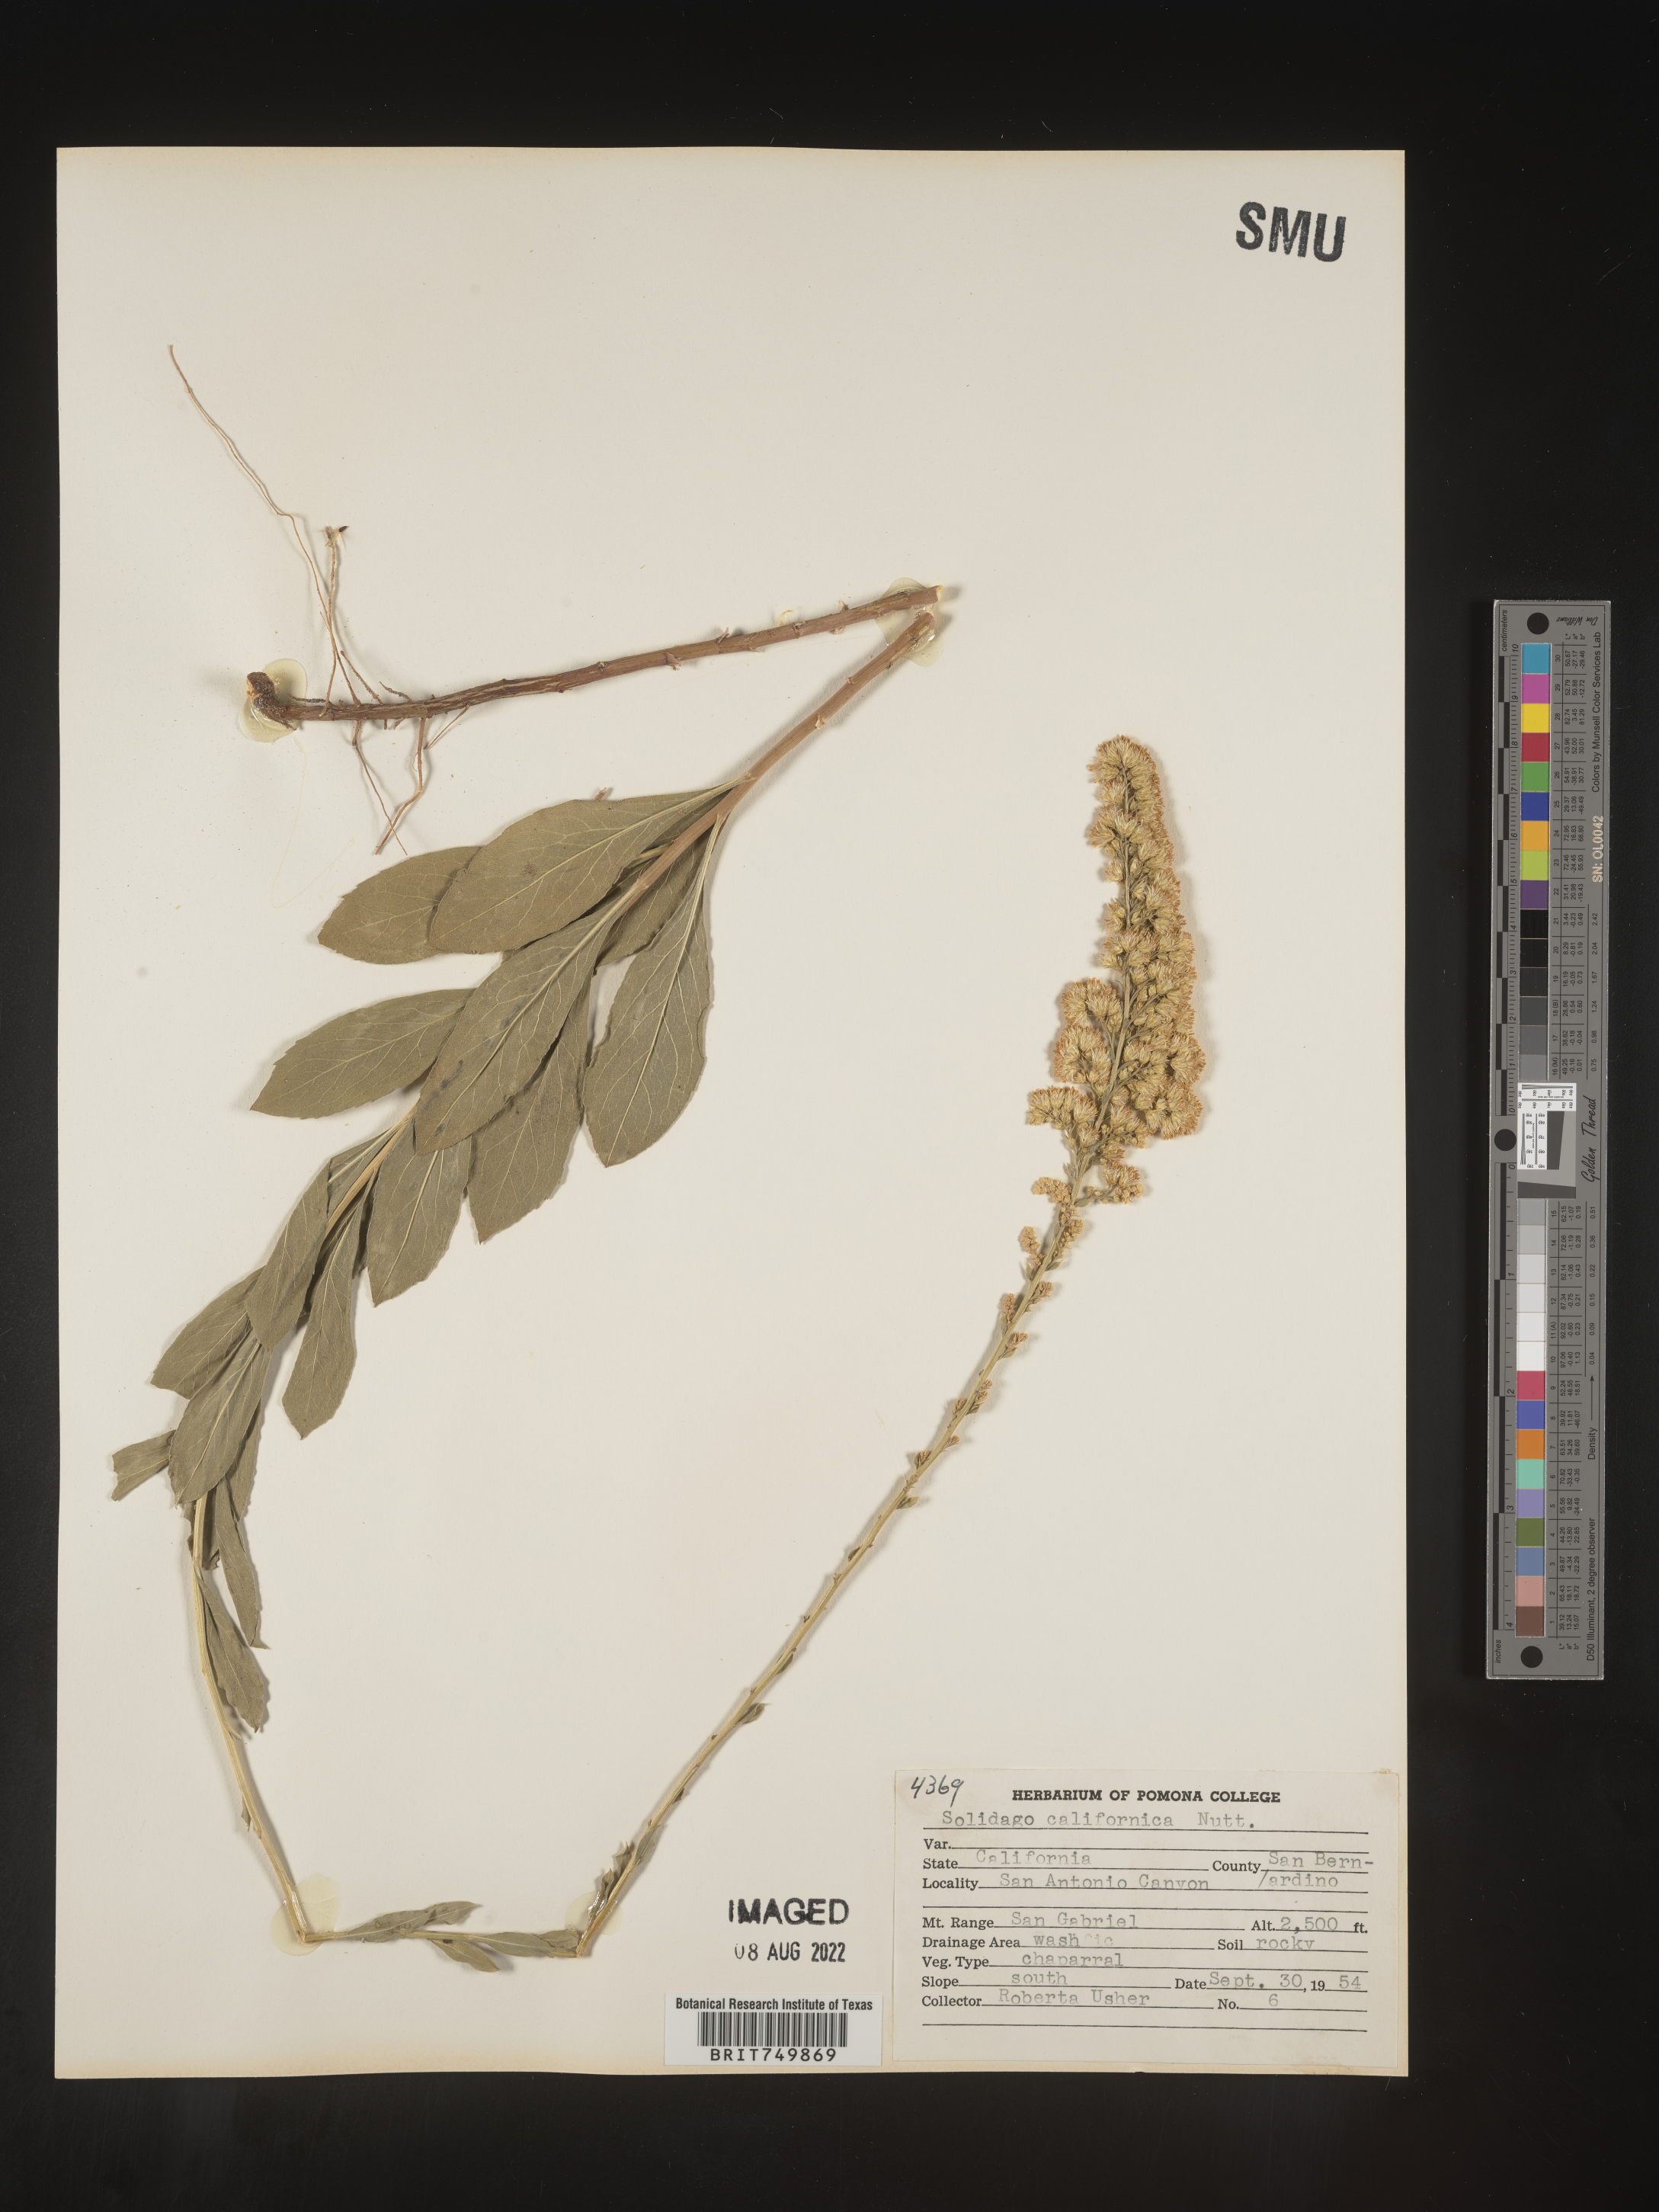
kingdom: Plantae
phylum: Tracheophyta
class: Magnoliopsida
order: Asterales
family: Asteraceae
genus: Solidago
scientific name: Solidago californica
